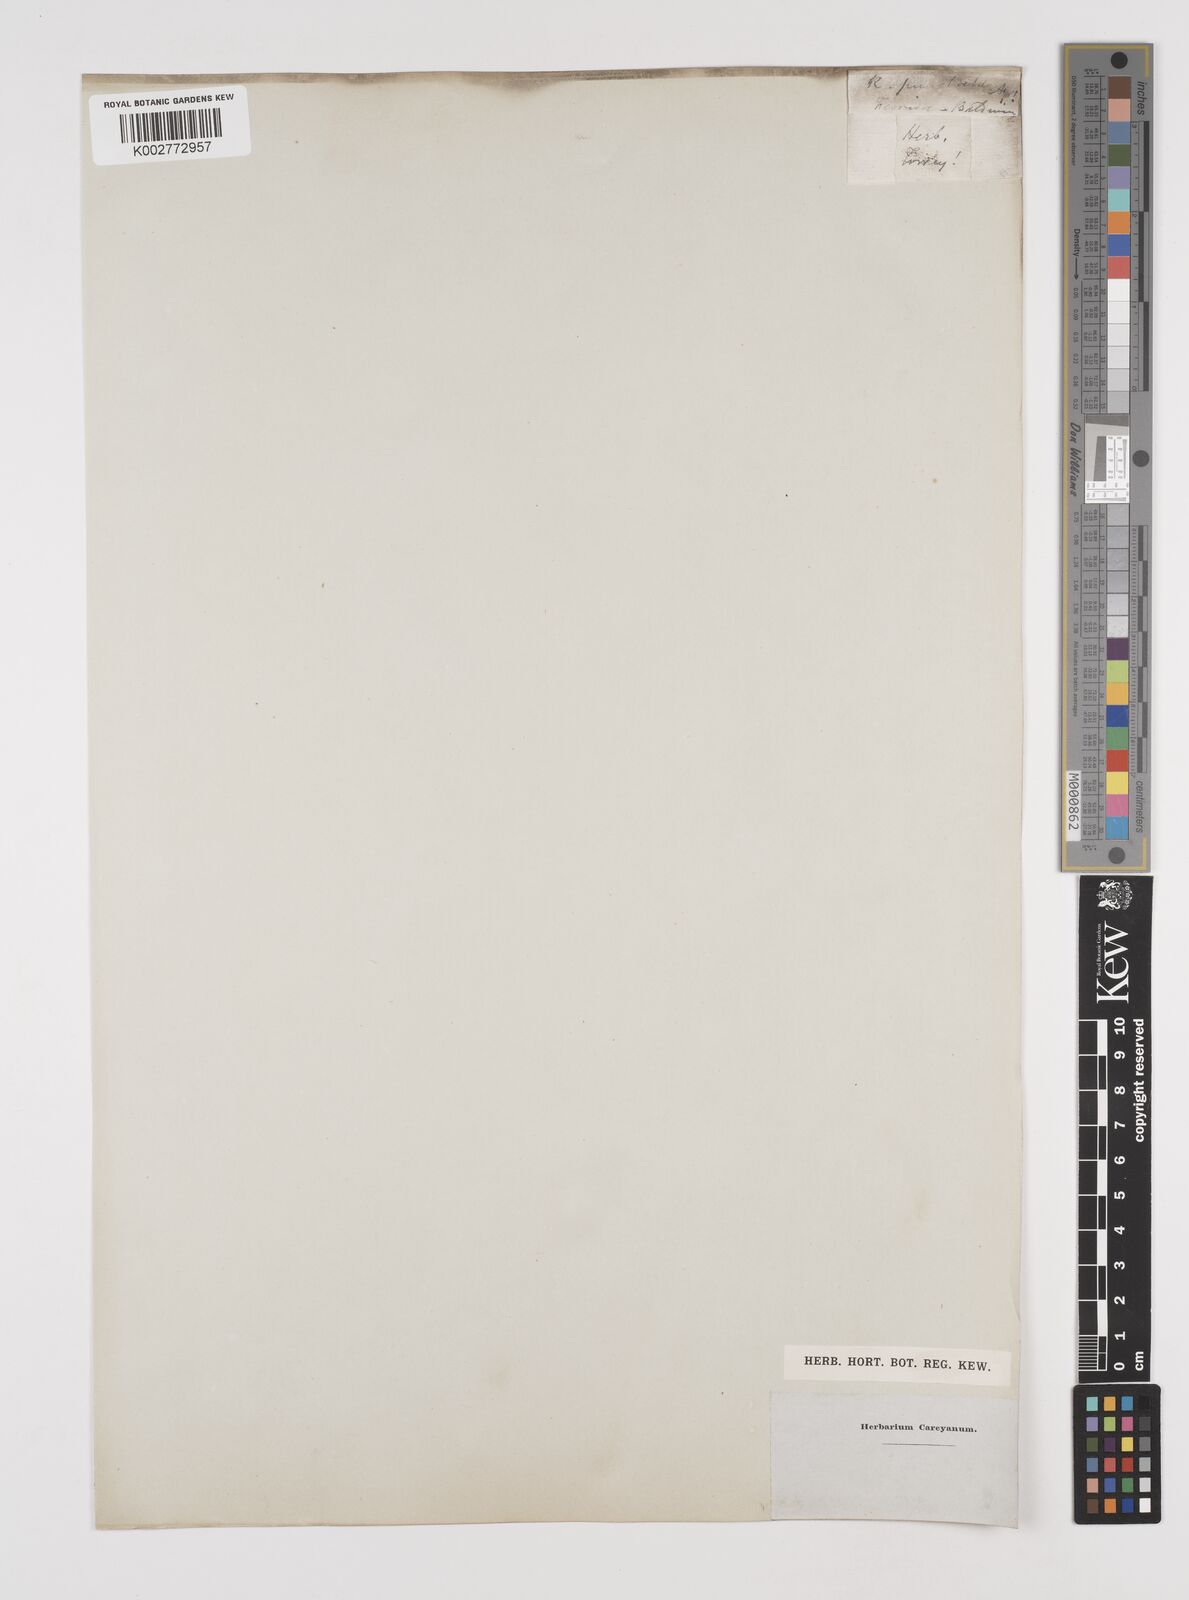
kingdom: Plantae
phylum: Tracheophyta
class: Liliopsida
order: Poales
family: Cyperaceae
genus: Rhynchospora
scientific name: Rhynchospora stenophylla
